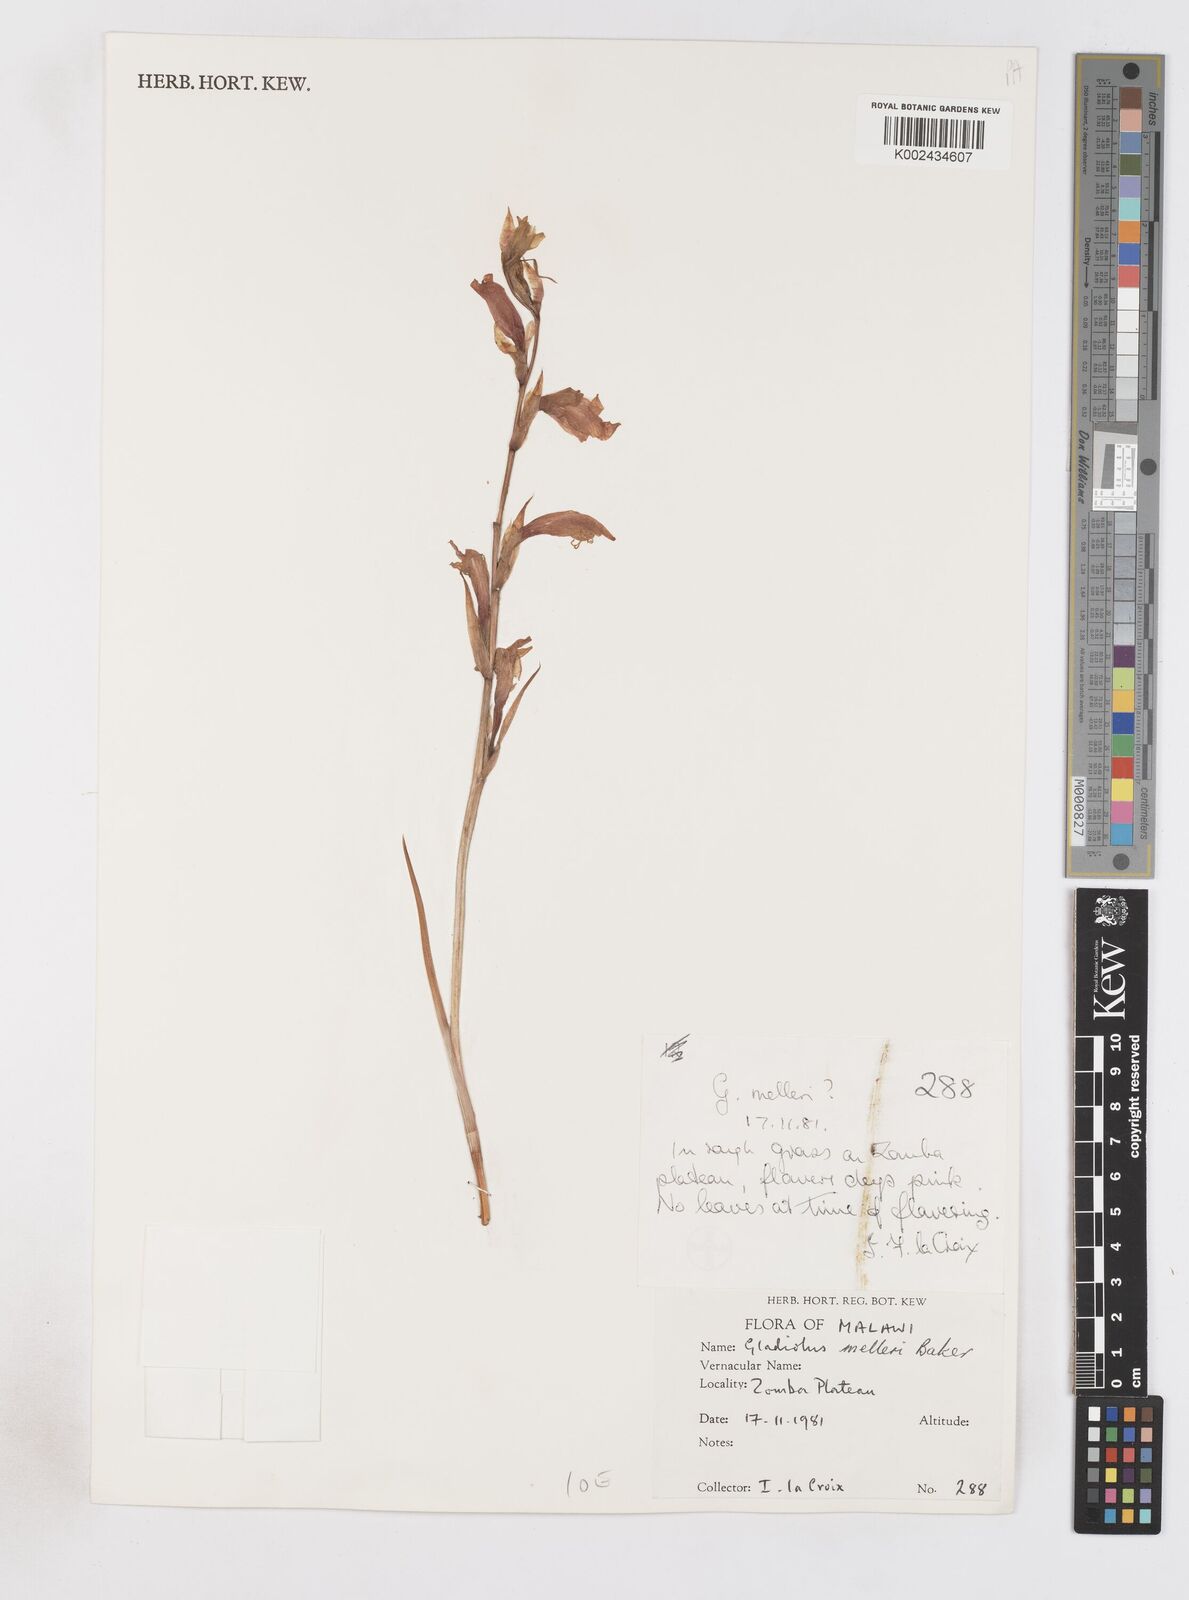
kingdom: Plantae
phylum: Tracheophyta
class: Liliopsida
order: Asparagales
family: Iridaceae
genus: Gladiolus
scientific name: Gladiolus melleri
